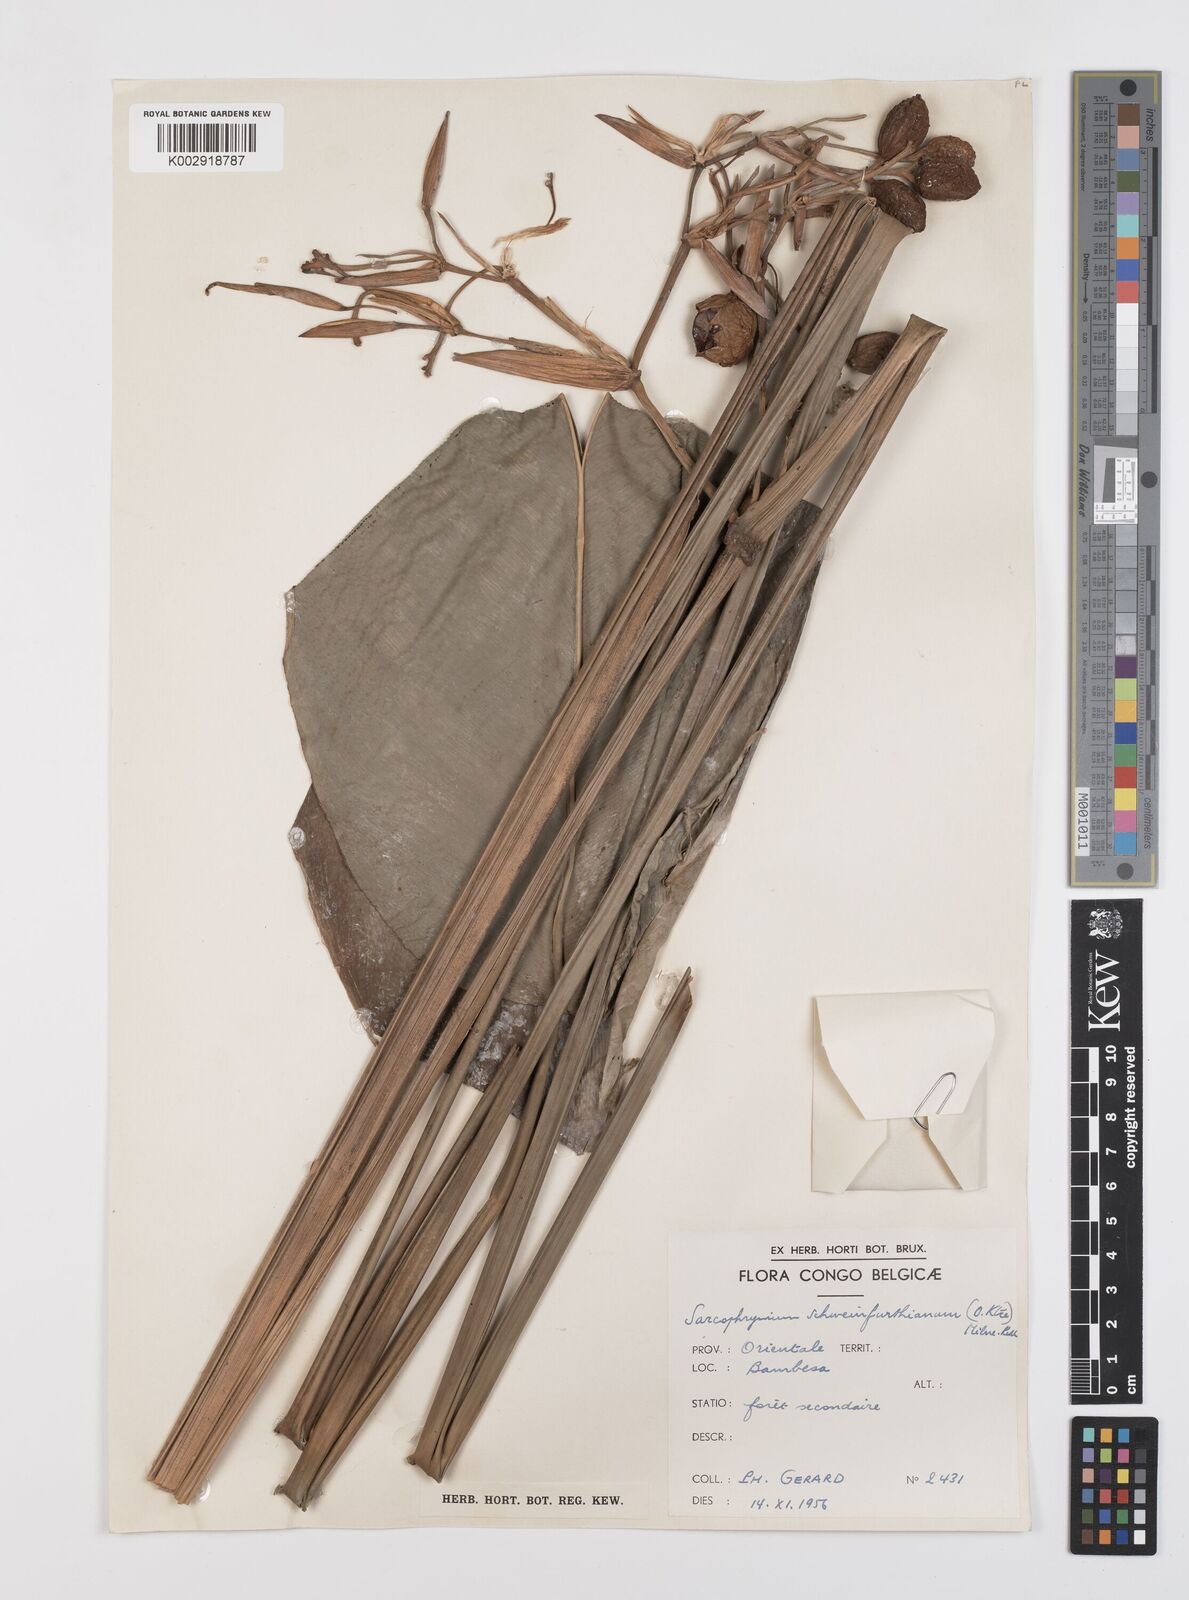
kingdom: Plantae
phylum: Tracheophyta
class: Liliopsida
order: Zingiberales
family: Marantaceae
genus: Sarcophrynium
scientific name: Sarcophrynium schweinfurthianum
